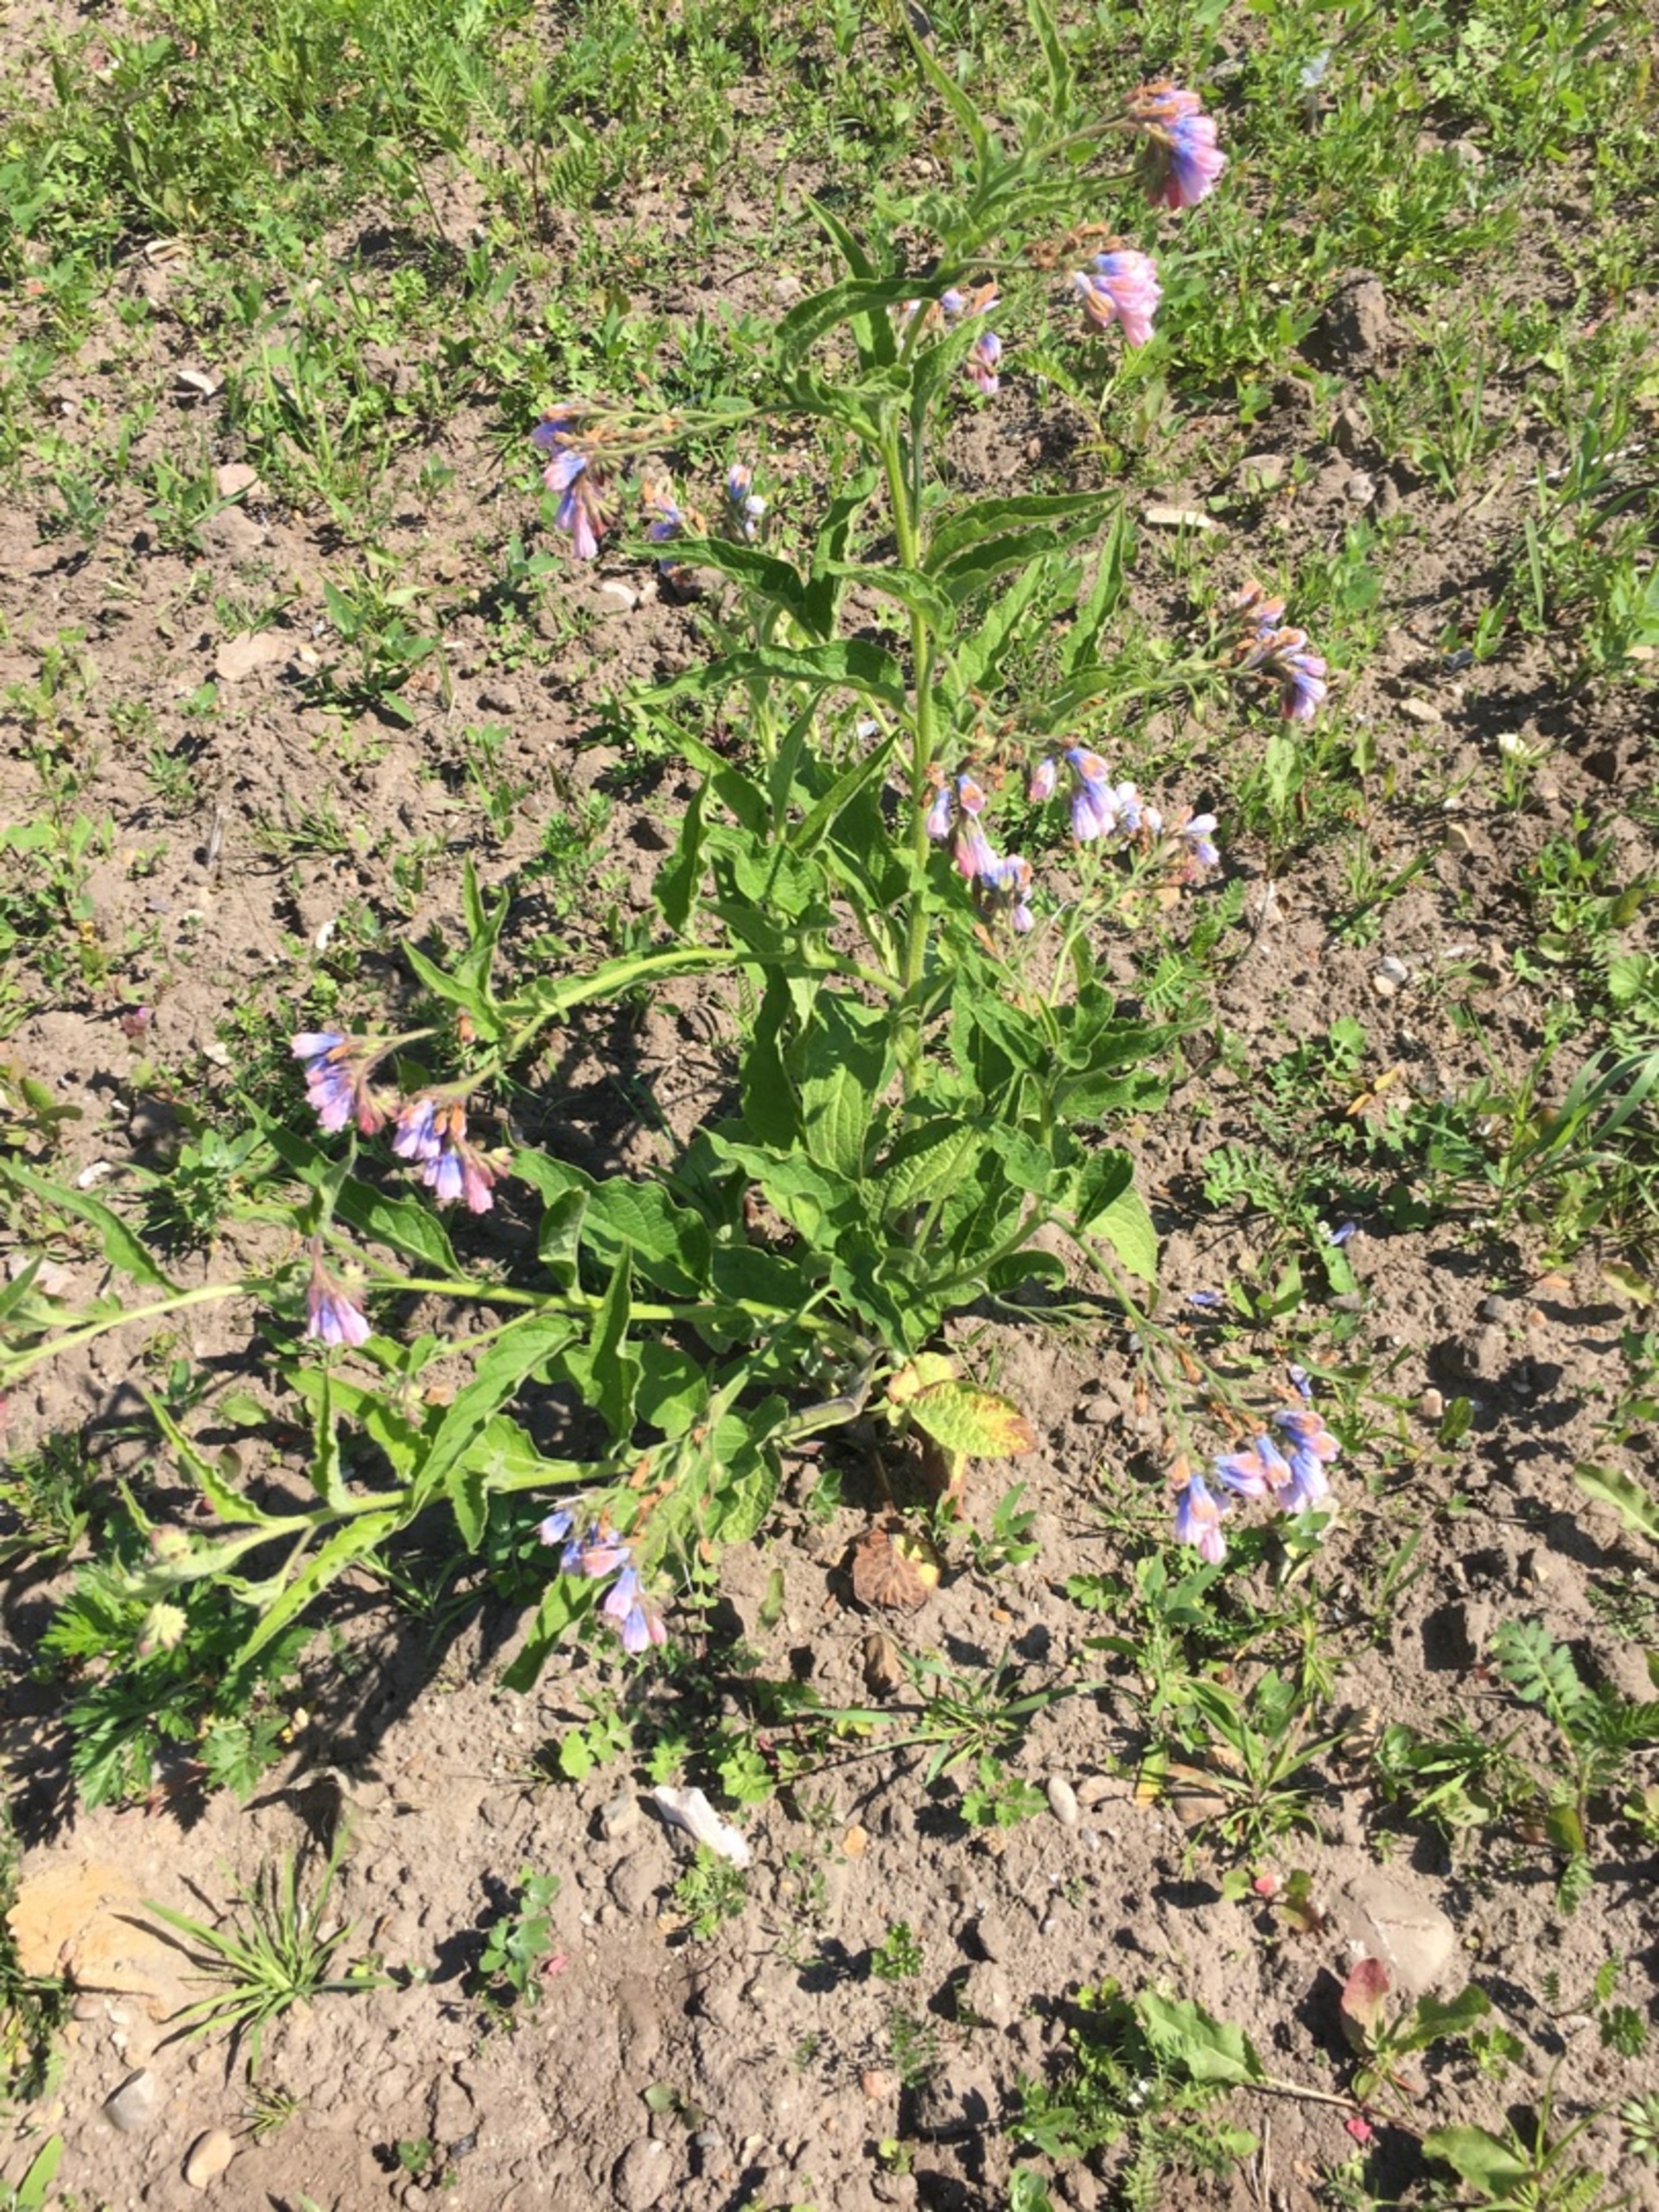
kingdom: Plantae
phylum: Tracheophyta
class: Magnoliopsida
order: Boraginales
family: Boraginaceae
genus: Symphytum
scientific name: Symphytum uplandicum
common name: Foder-kulsukker
